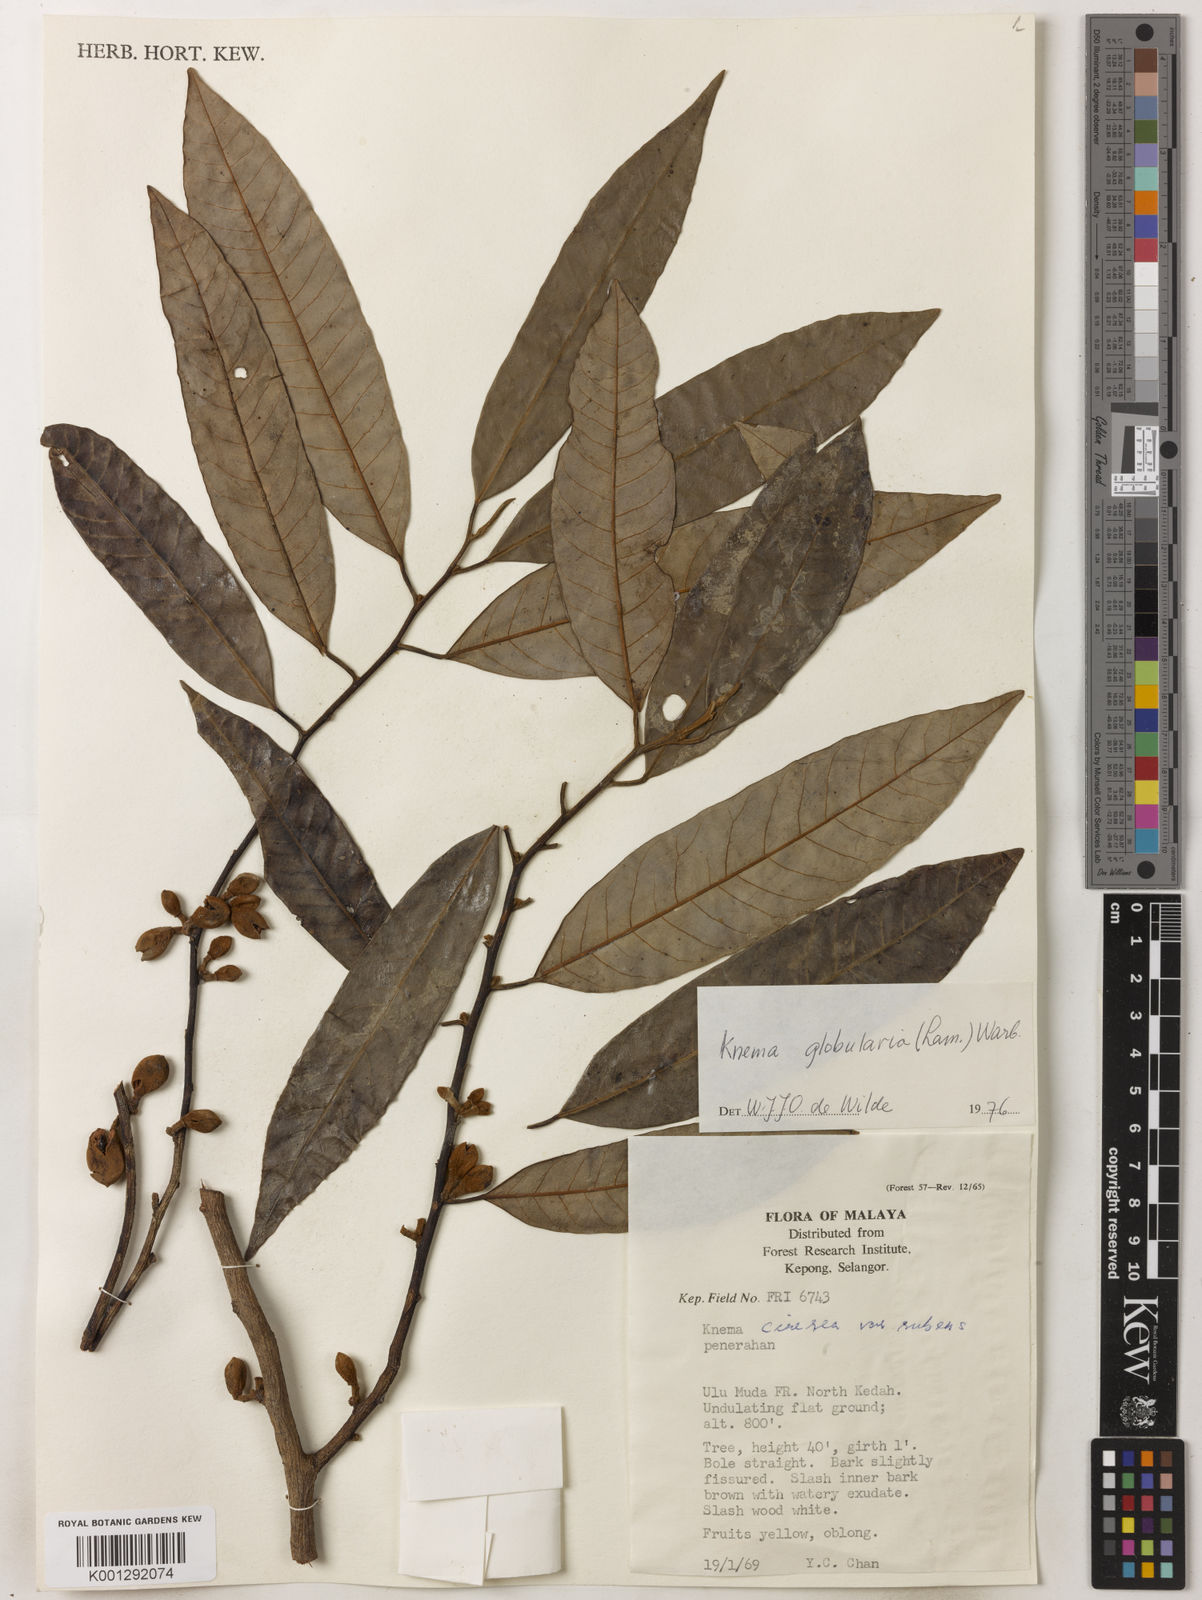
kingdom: Plantae
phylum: Tracheophyta
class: Magnoliopsida
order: Magnoliales
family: Myristicaceae
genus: Knema
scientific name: Knema globularia
